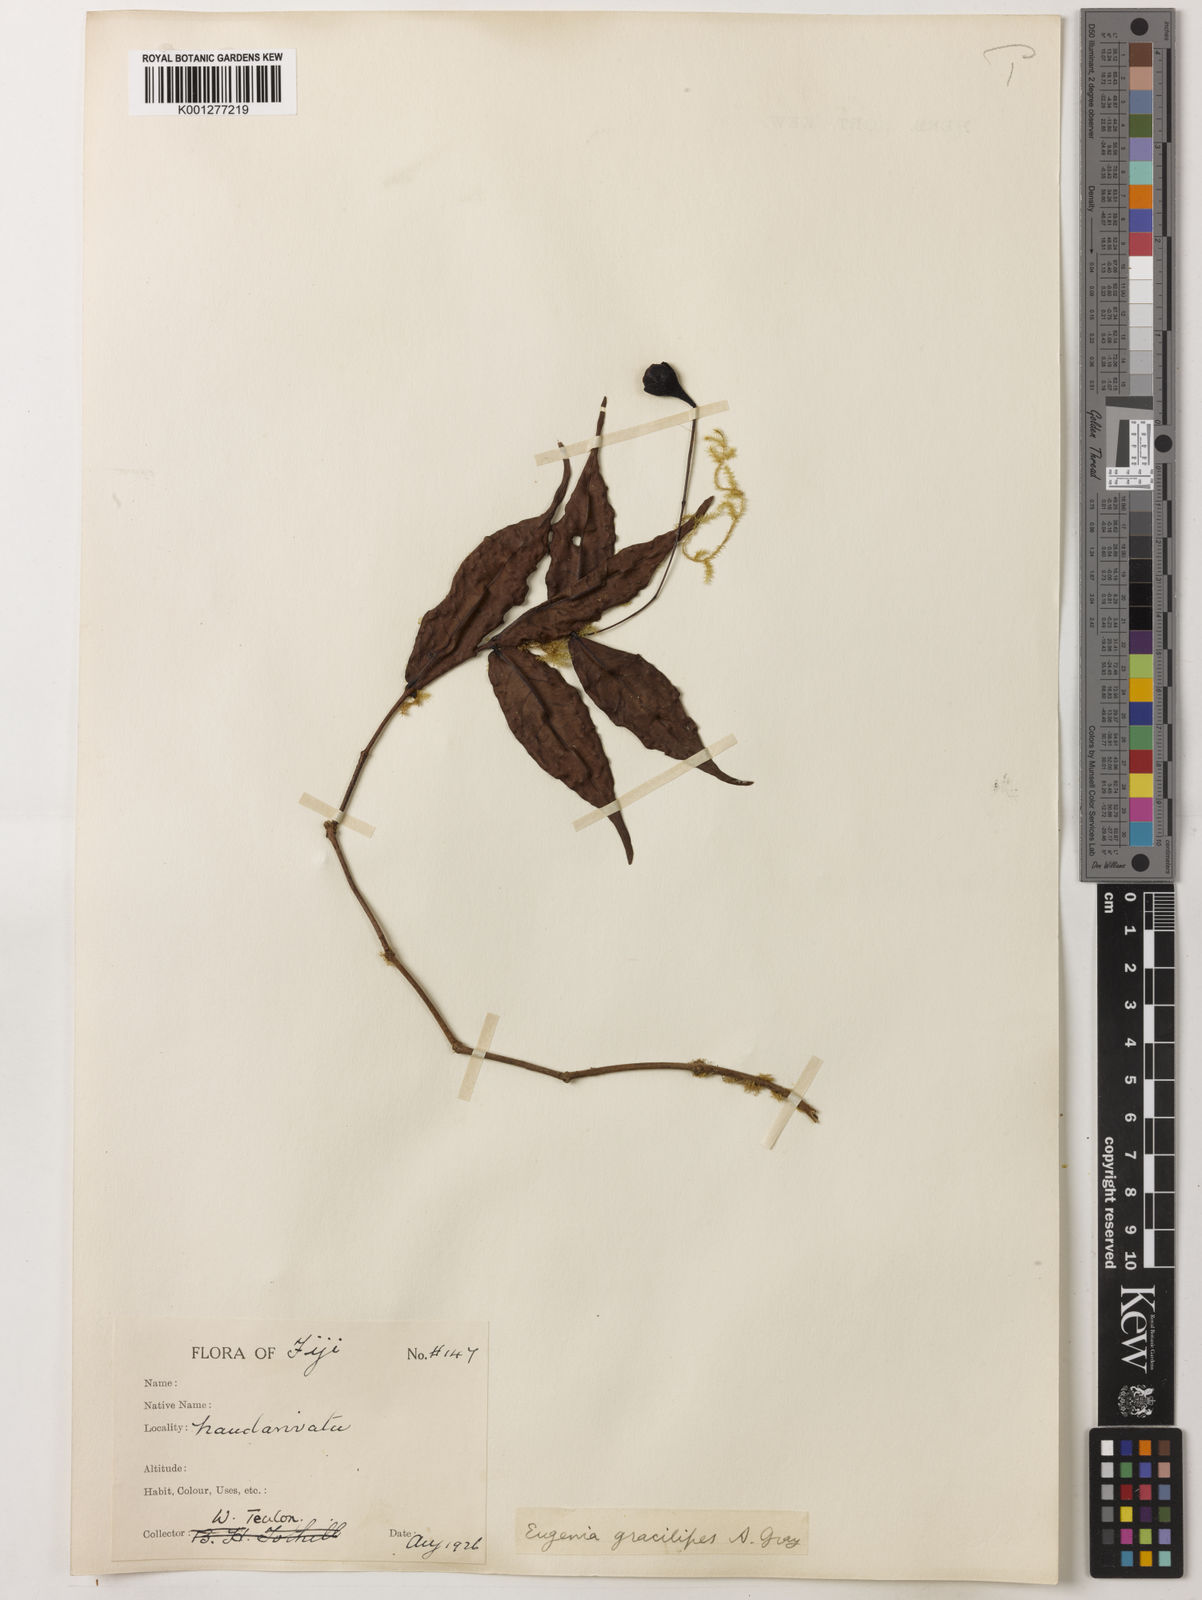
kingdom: Plantae
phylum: Tracheophyta
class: Magnoliopsida
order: Myrtales
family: Myrtaceae
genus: Syzygium
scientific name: Syzygium gracilipes
